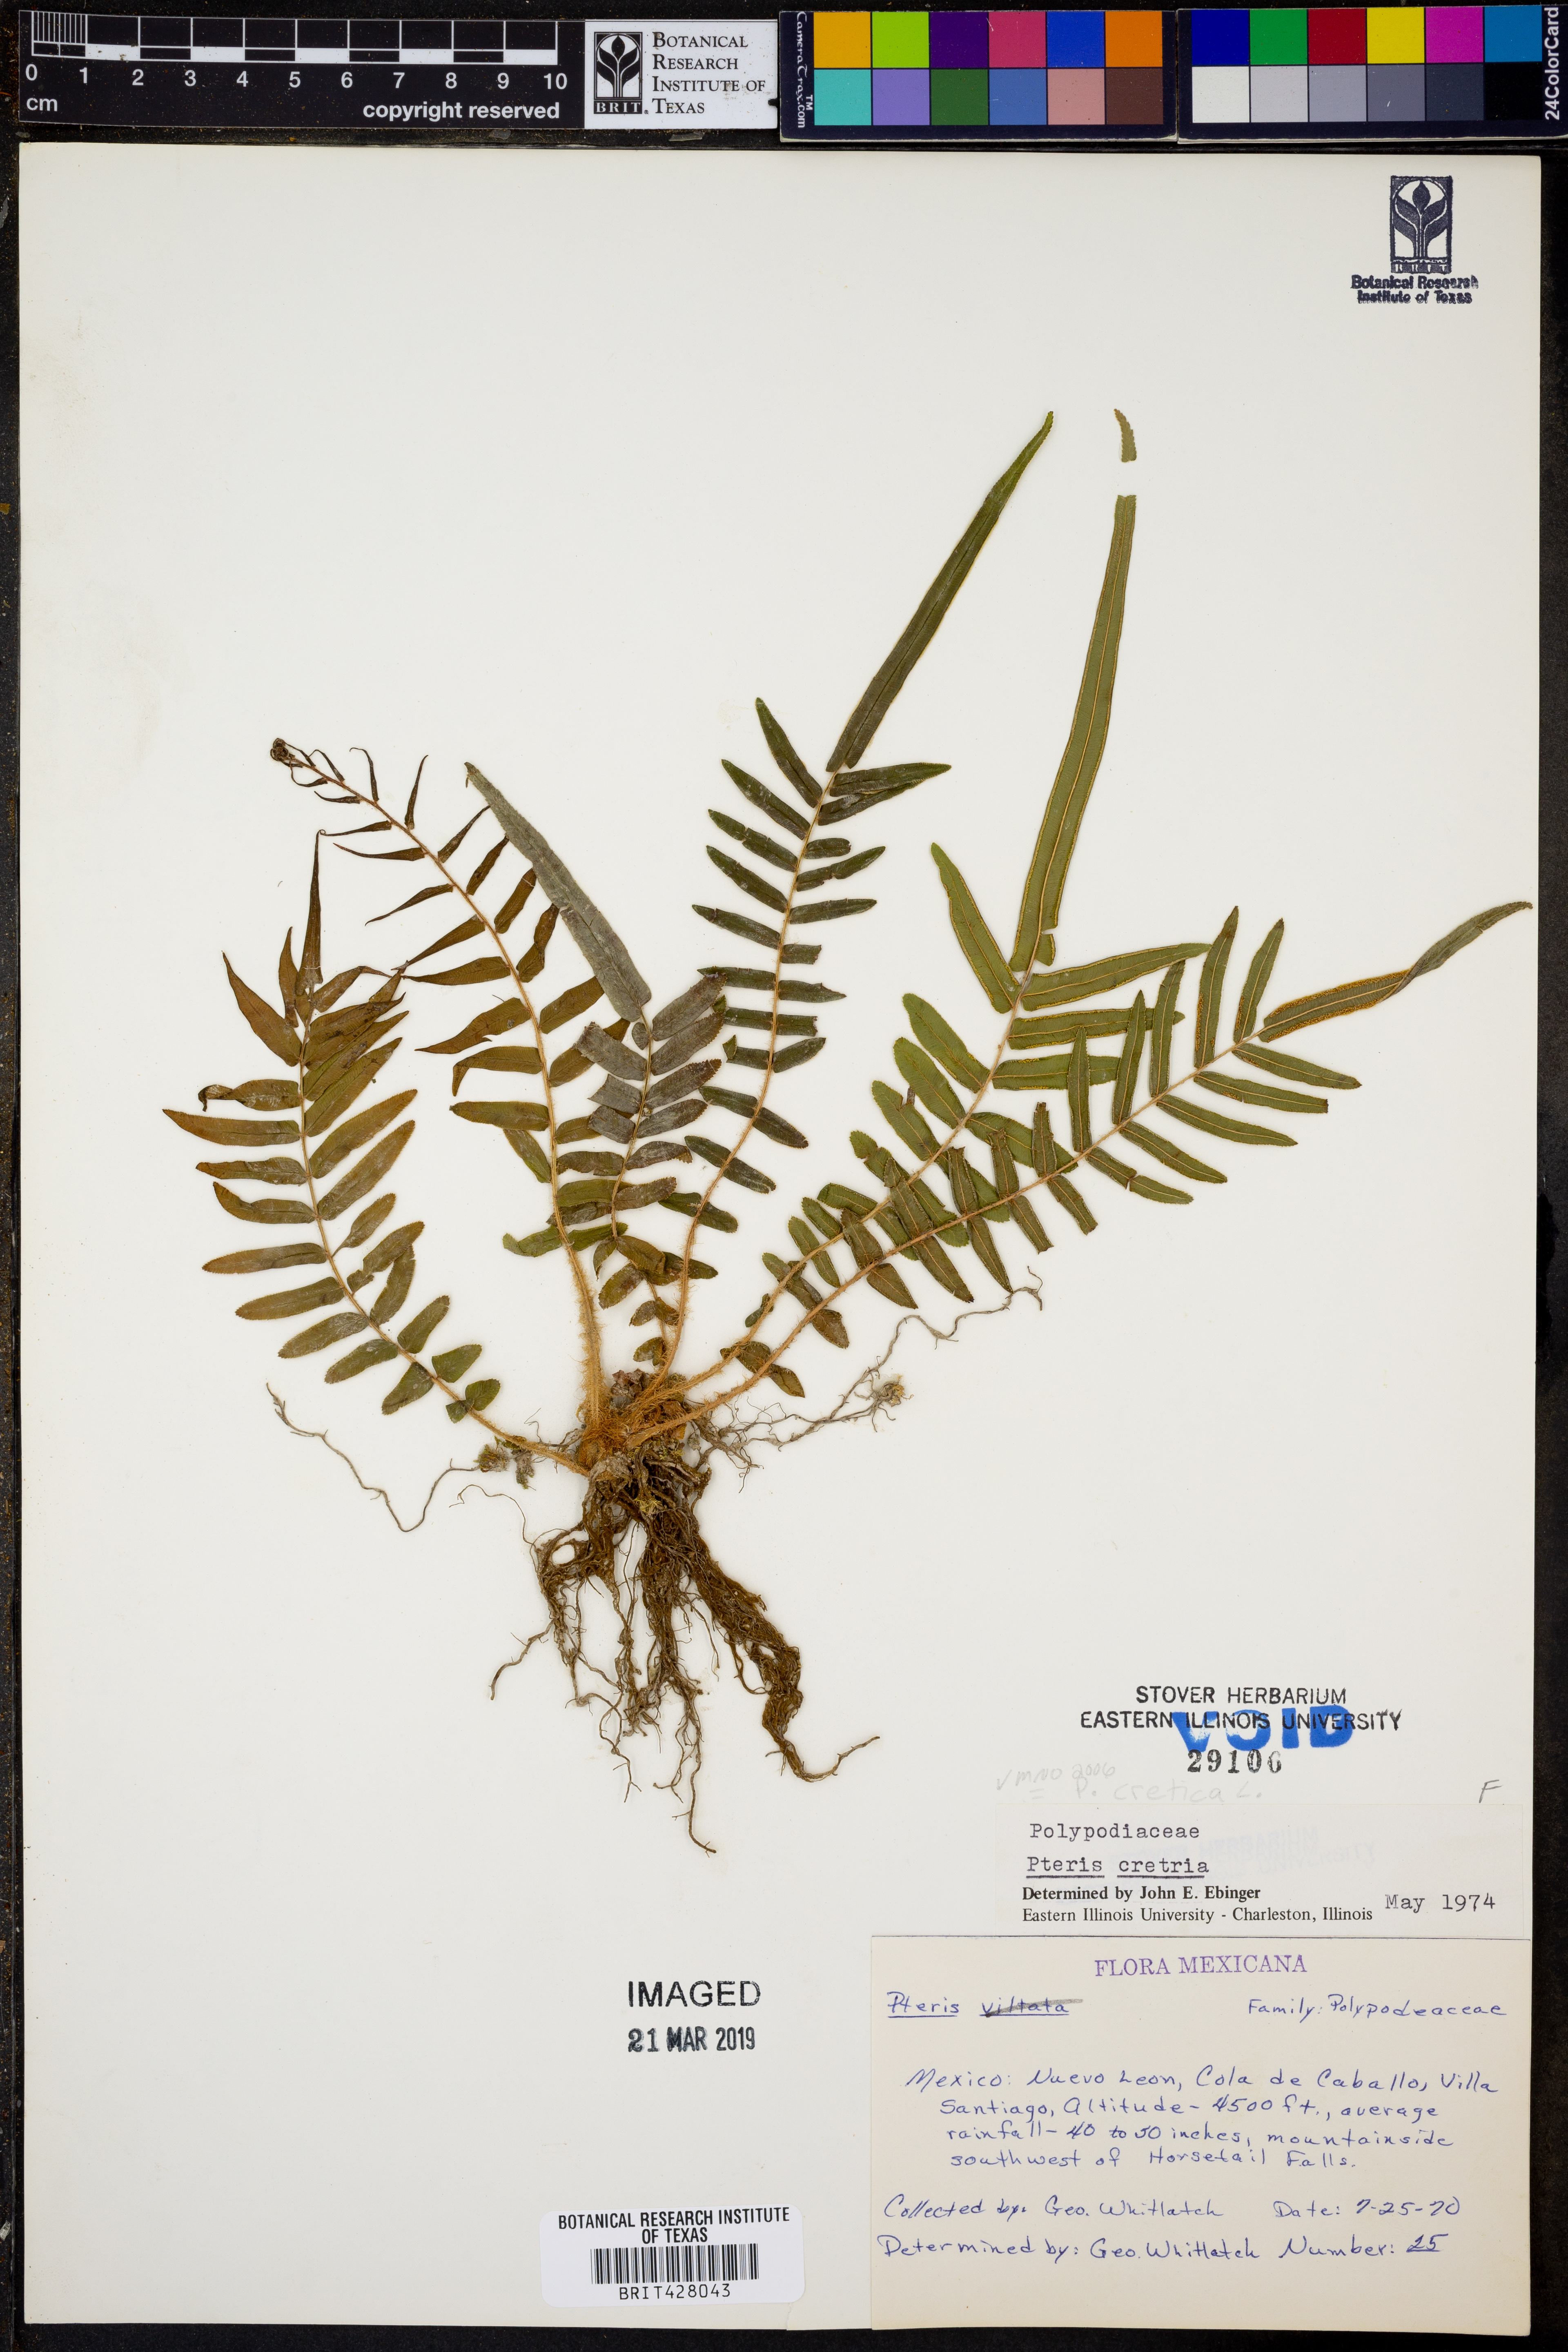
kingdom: Plantae
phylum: Tracheophyta
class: Polypodiopsida
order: Polypodiales
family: Pteridaceae
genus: Pteris
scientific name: Pteris cretica
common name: Ribbon fern
